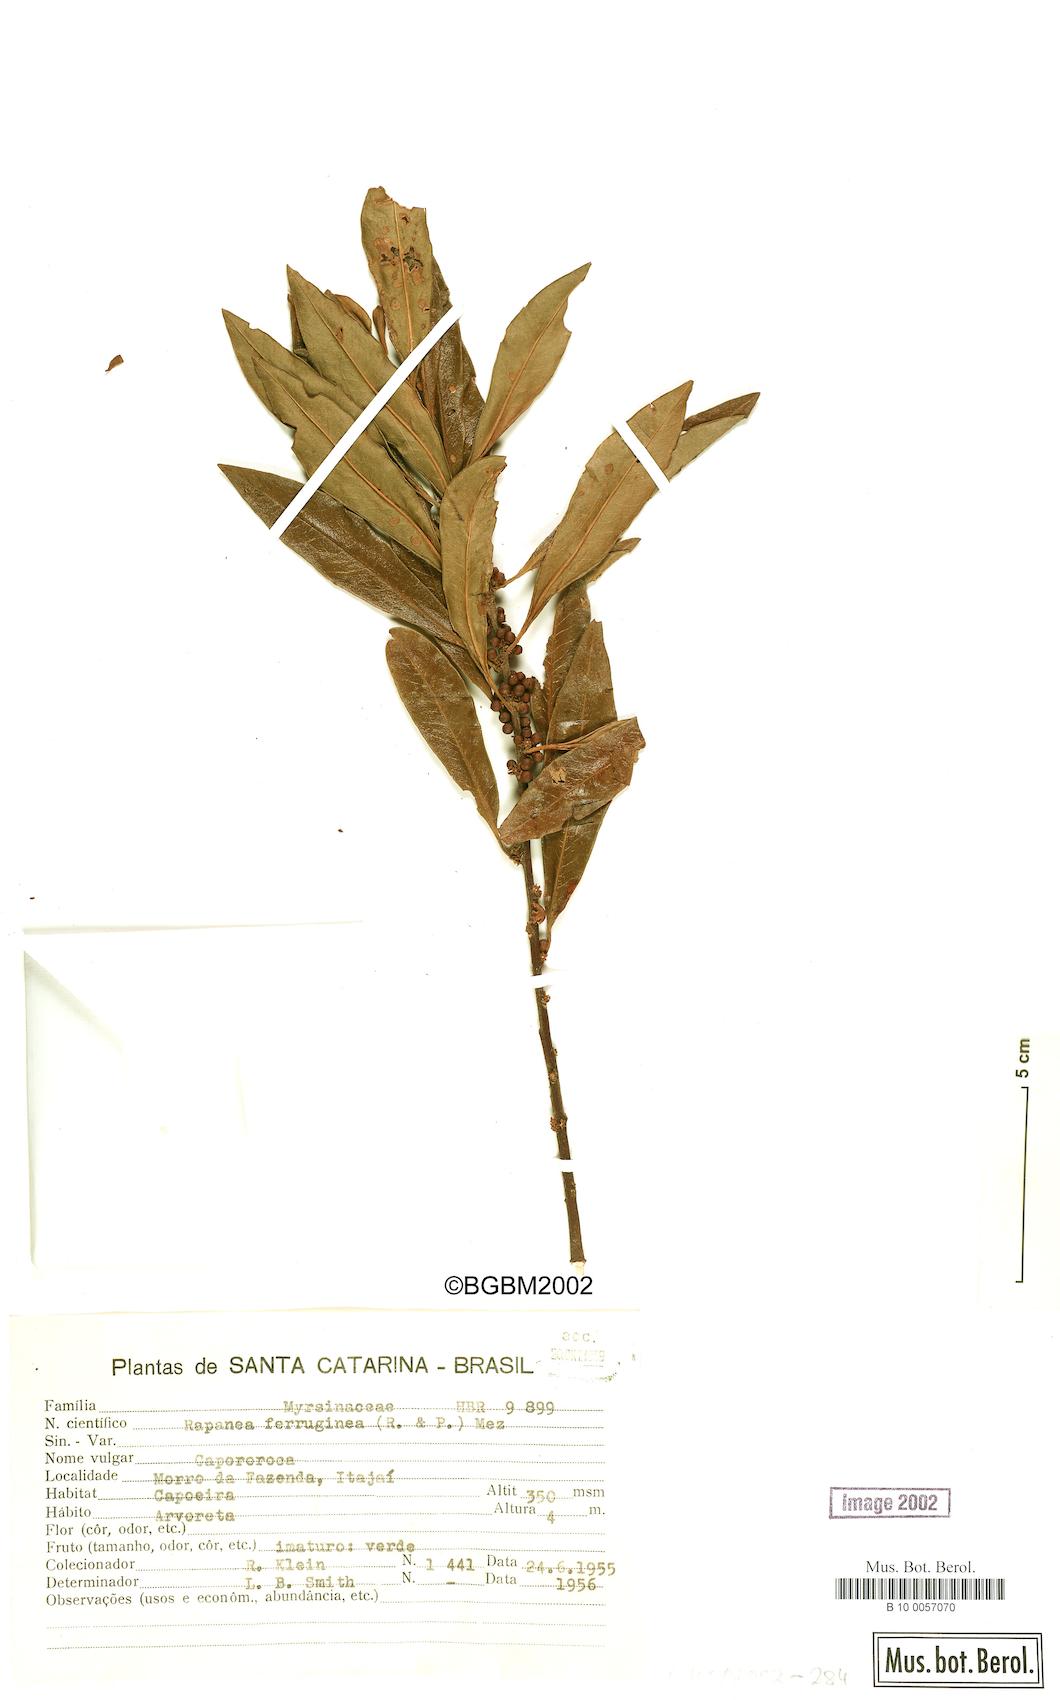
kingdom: Plantae
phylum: Tracheophyta
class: Magnoliopsida
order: Ericales
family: Primulaceae
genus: Myrsine
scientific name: Myrsine coriacea
